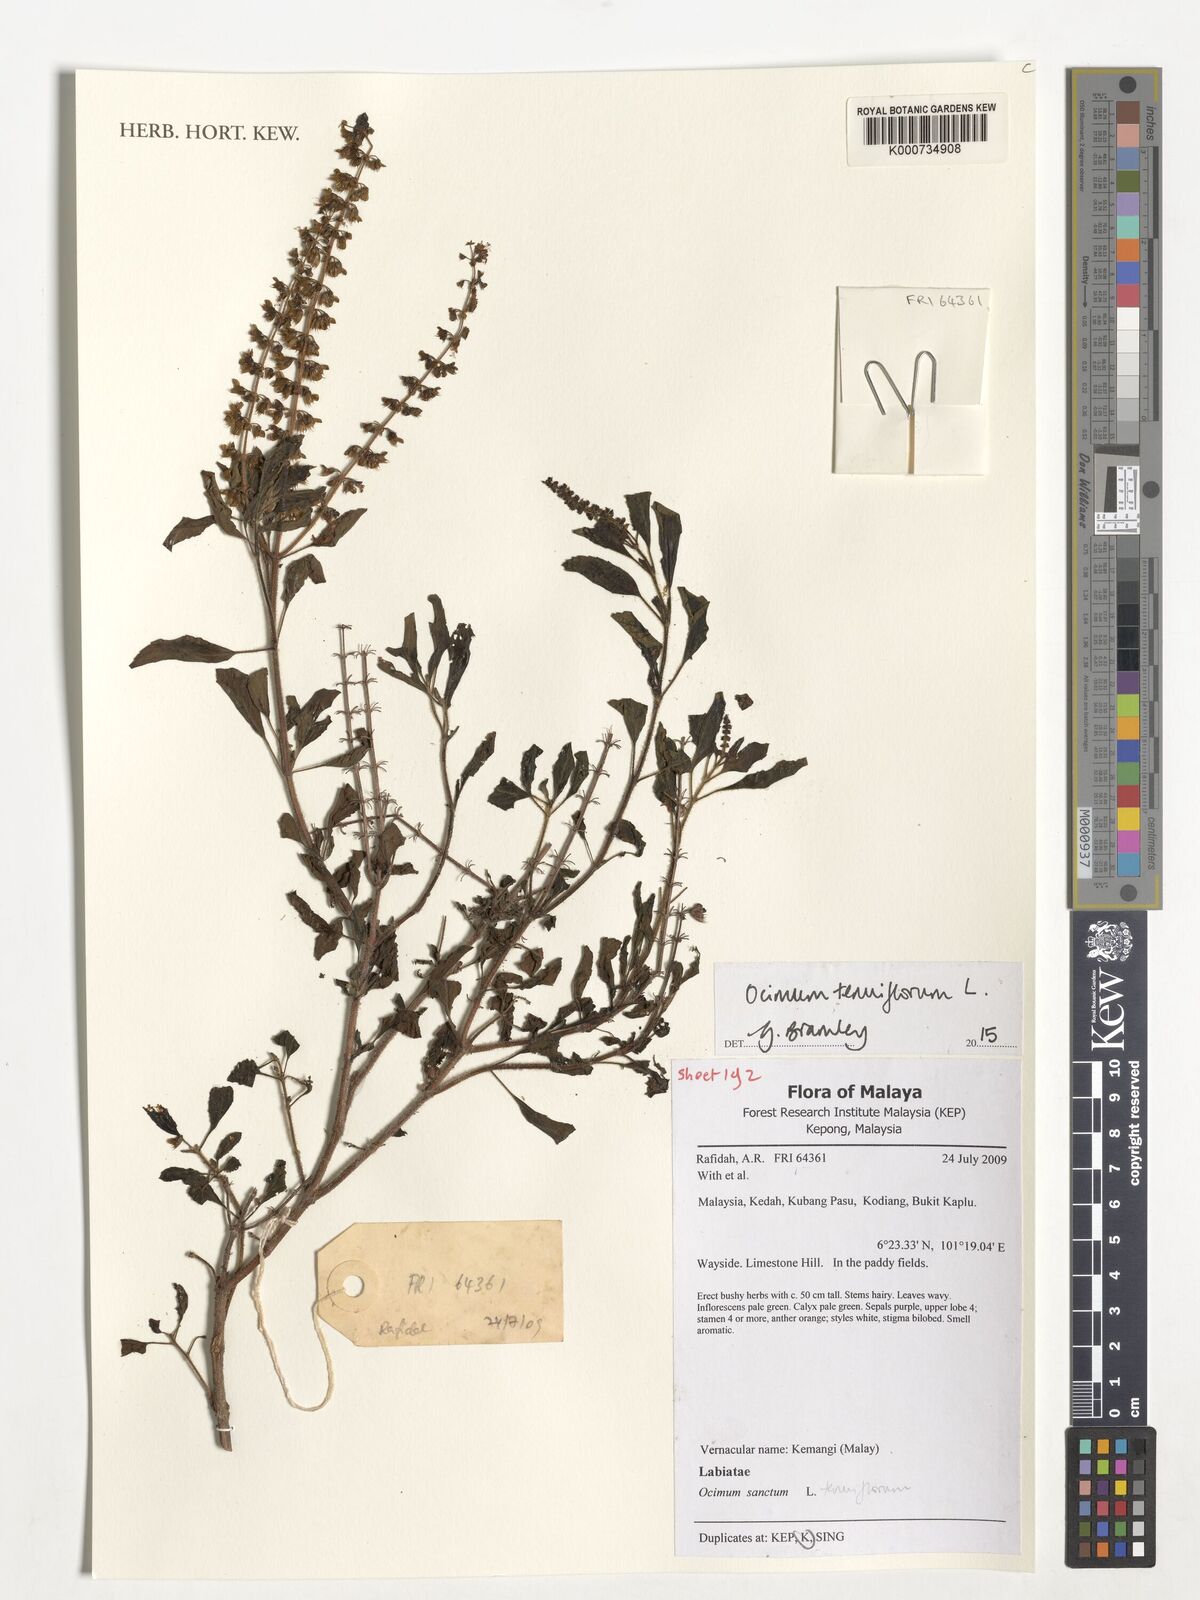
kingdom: Plantae
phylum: Tracheophyta
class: Magnoliopsida
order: Lamiales
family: Lamiaceae
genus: Ocimum
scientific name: Ocimum tenuiflorum
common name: Sacred basil
